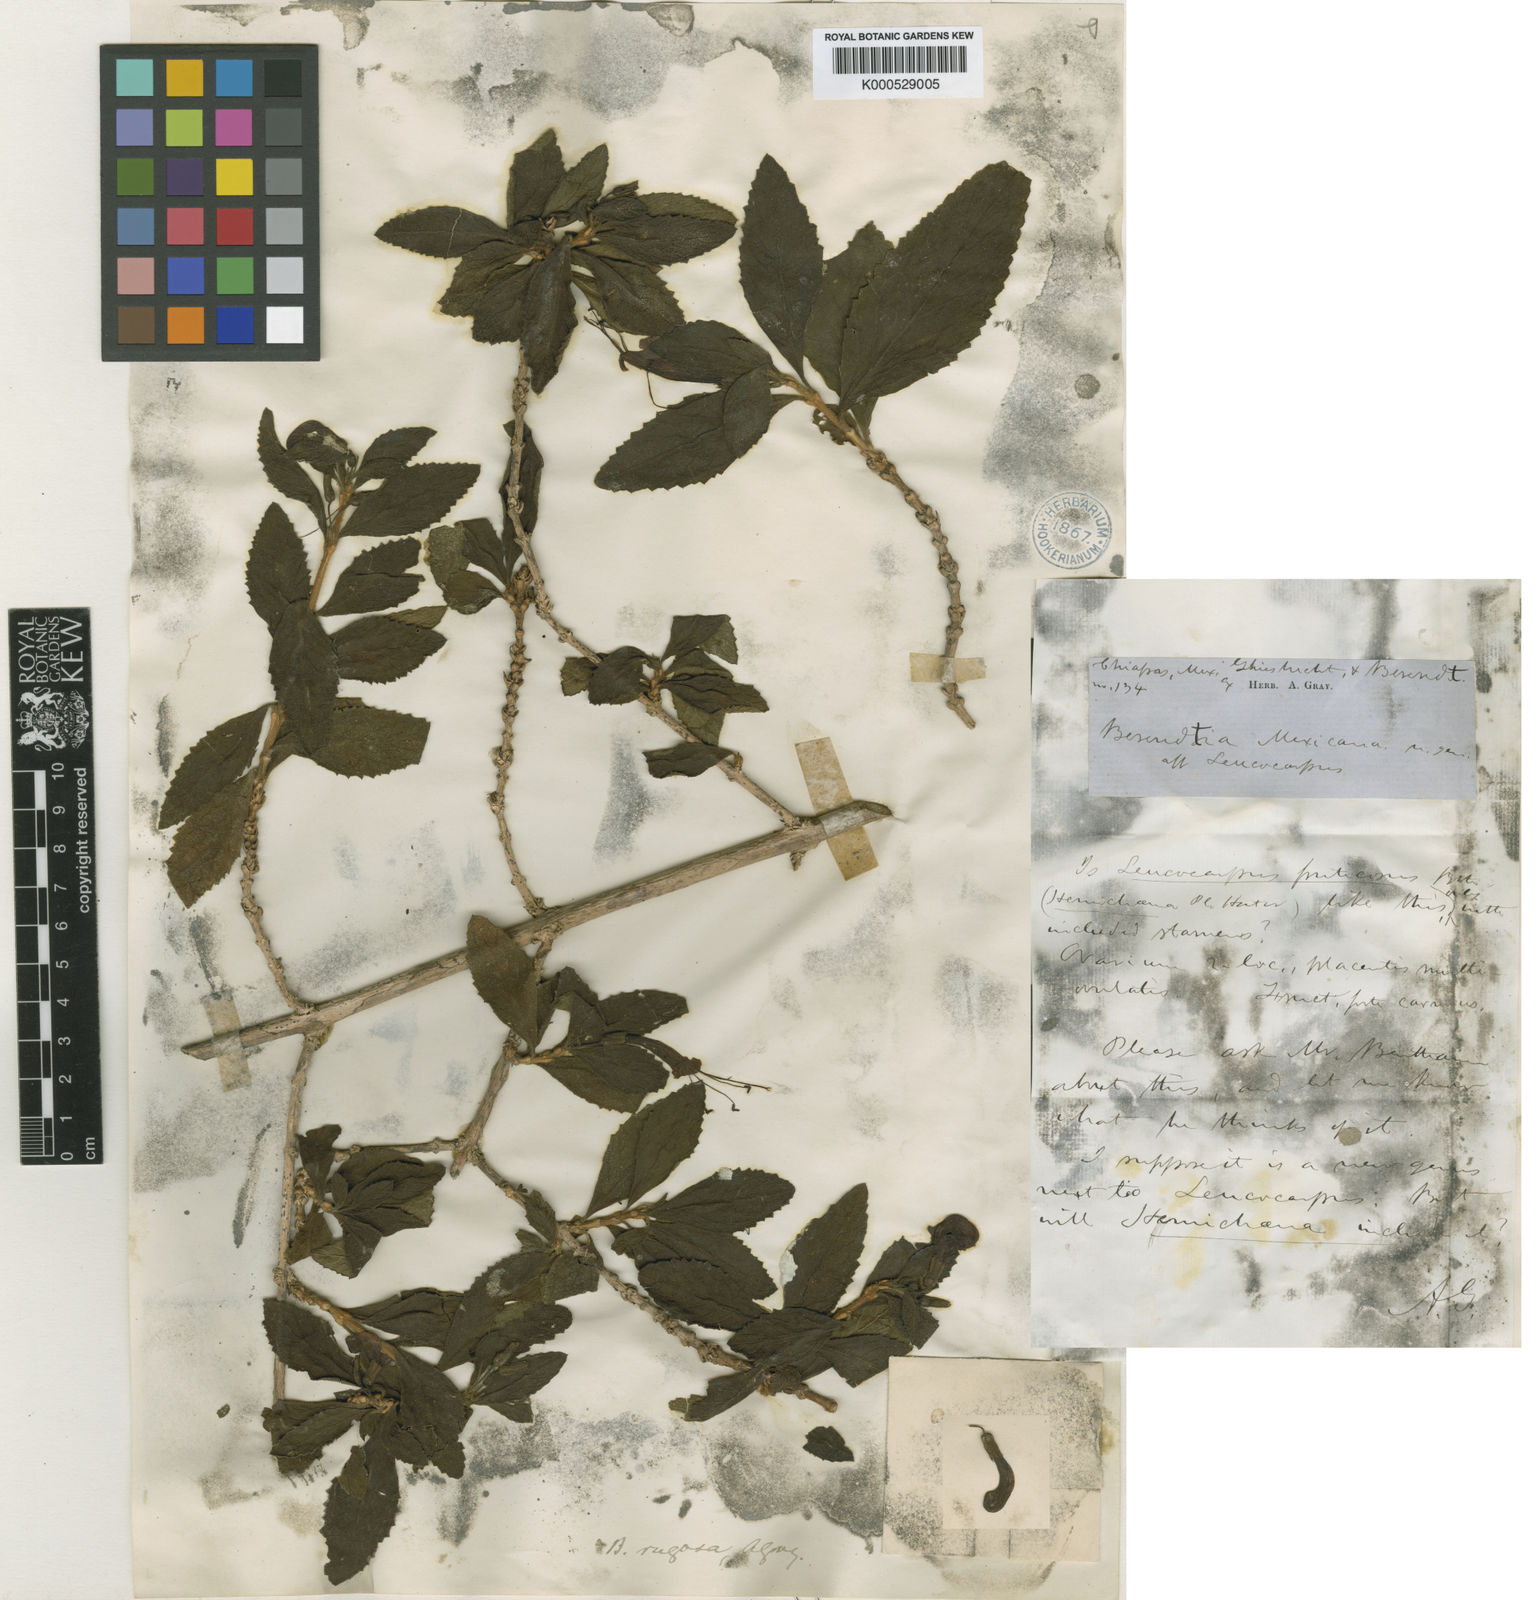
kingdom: Plantae
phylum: Tracheophyta
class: Magnoliopsida
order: Lamiales
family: Phrymaceae
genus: Hemichaena
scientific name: Hemichaena rugosa
